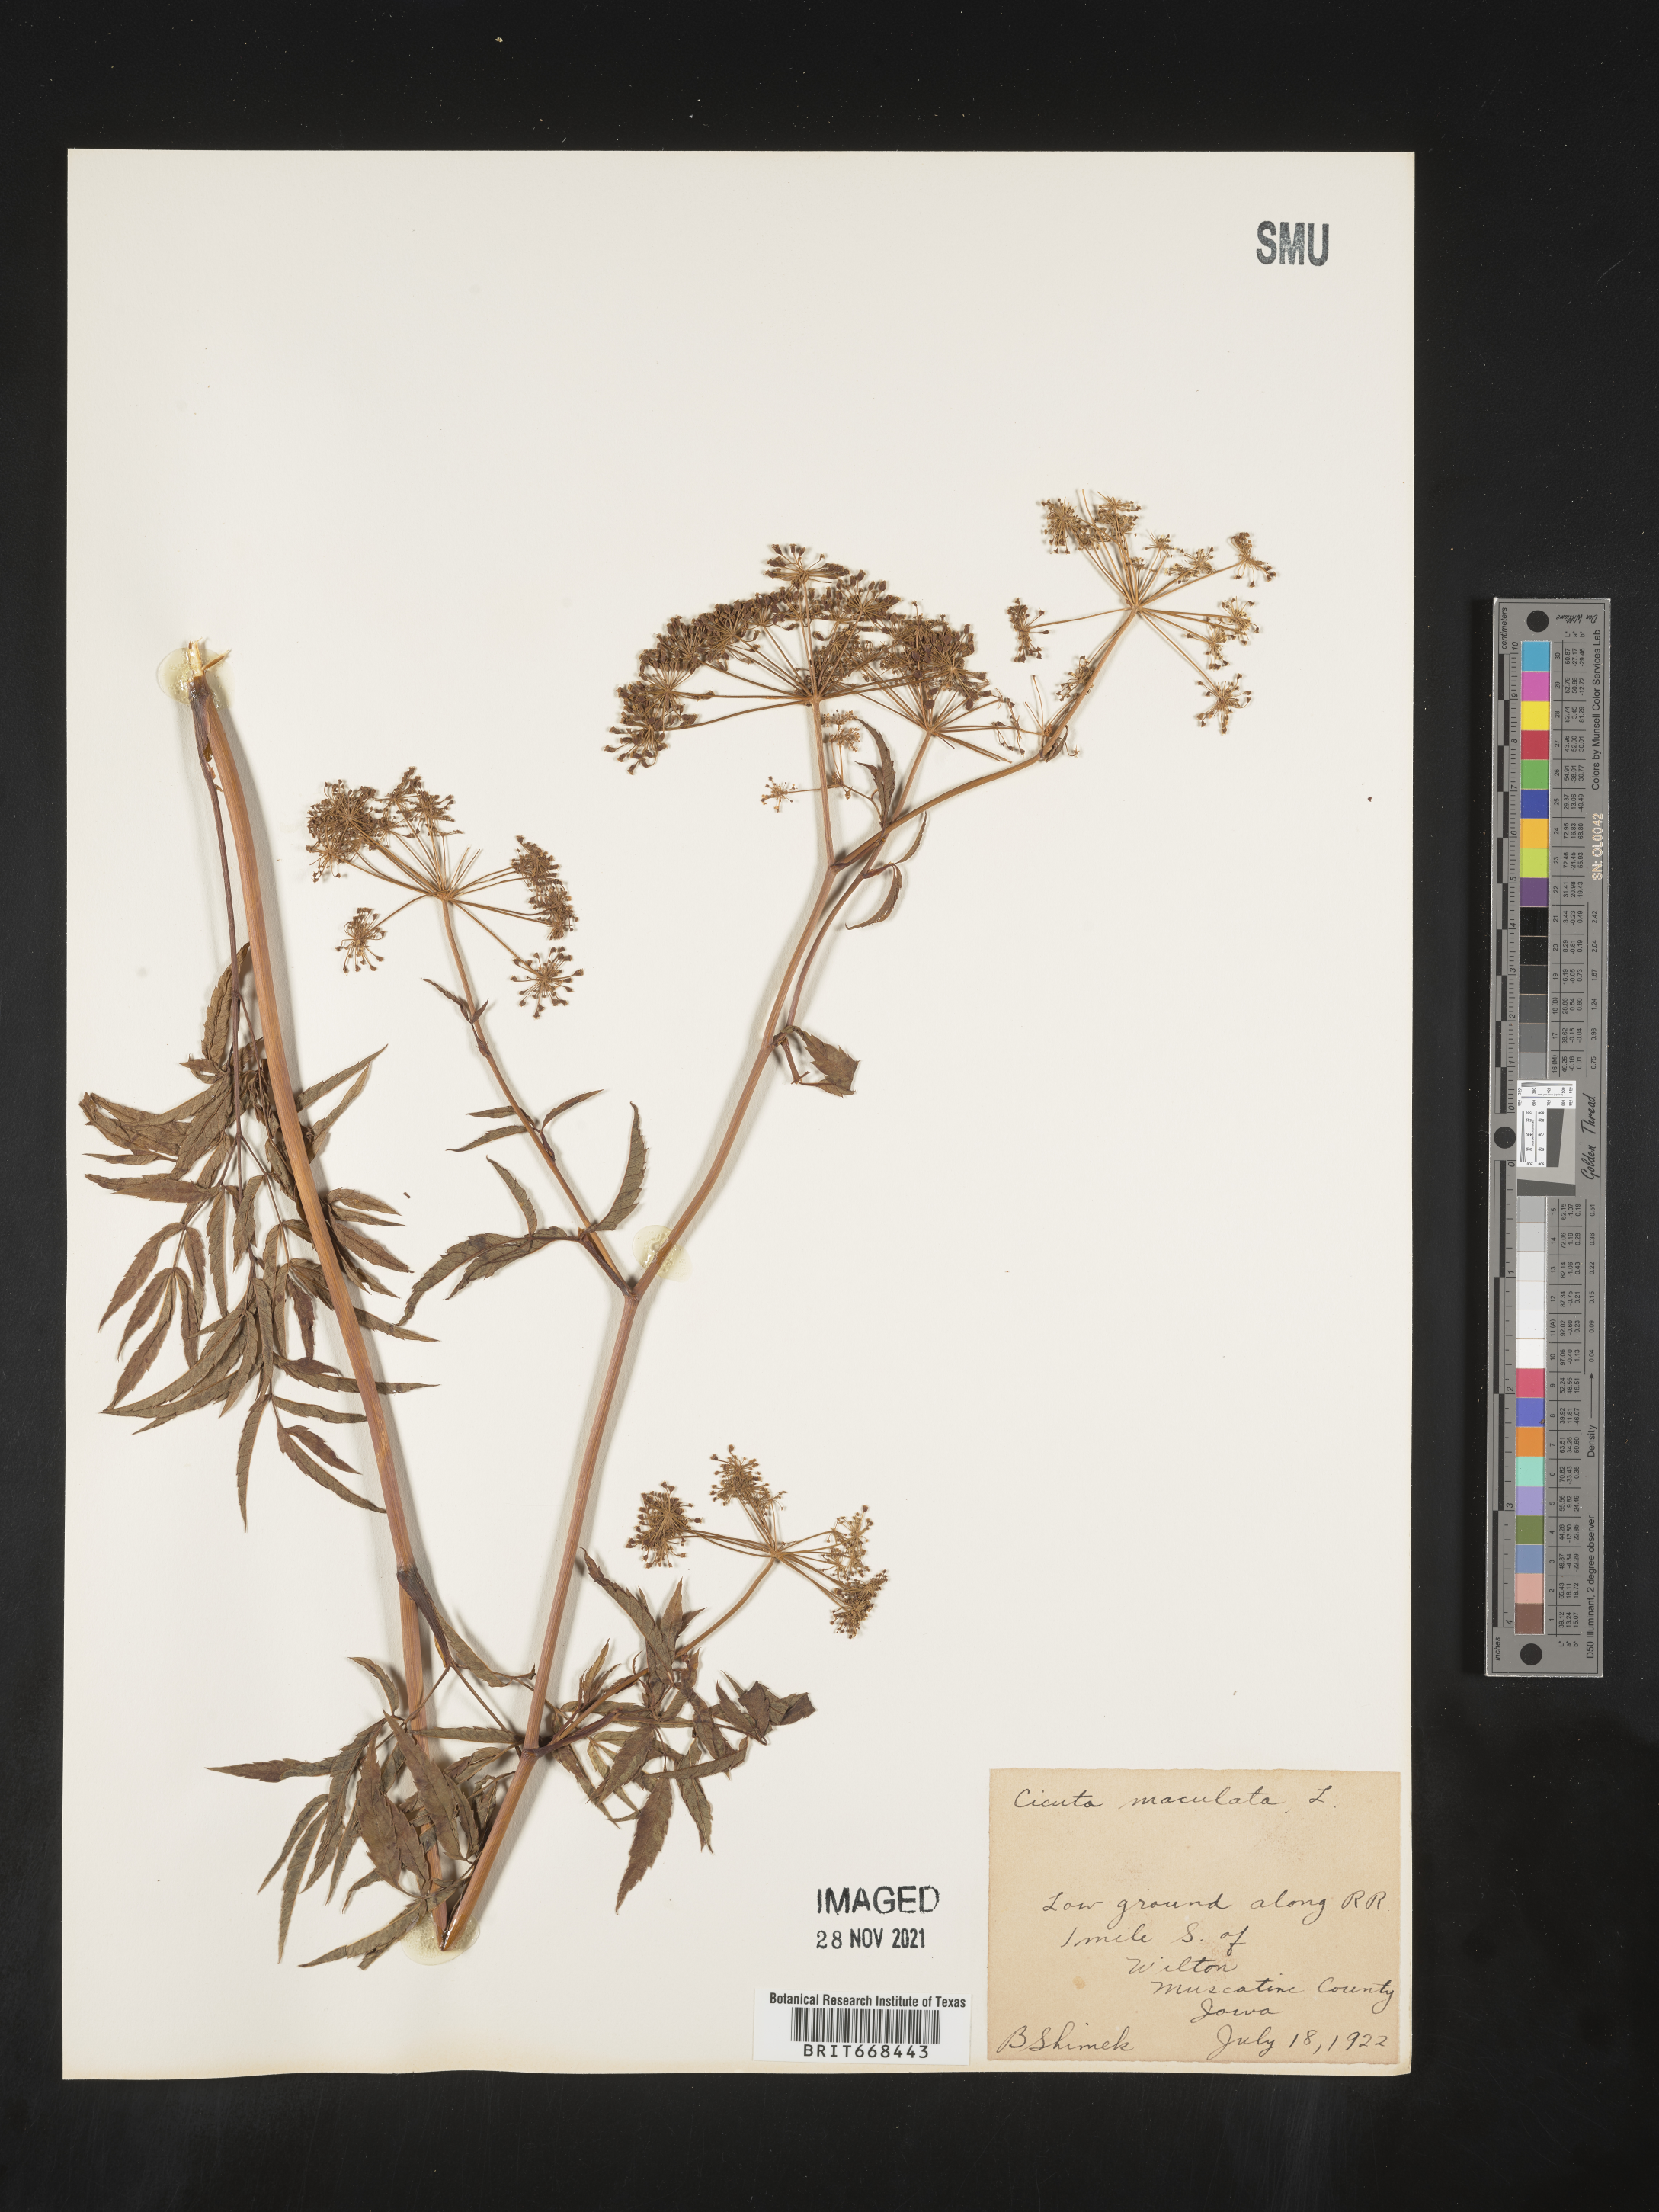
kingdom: Plantae
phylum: Tracheophyta
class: Magnoliopsida
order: Apiales
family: Apiaceae
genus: Cicuta
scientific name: Cicuta maculata
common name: Spotted cowbane
